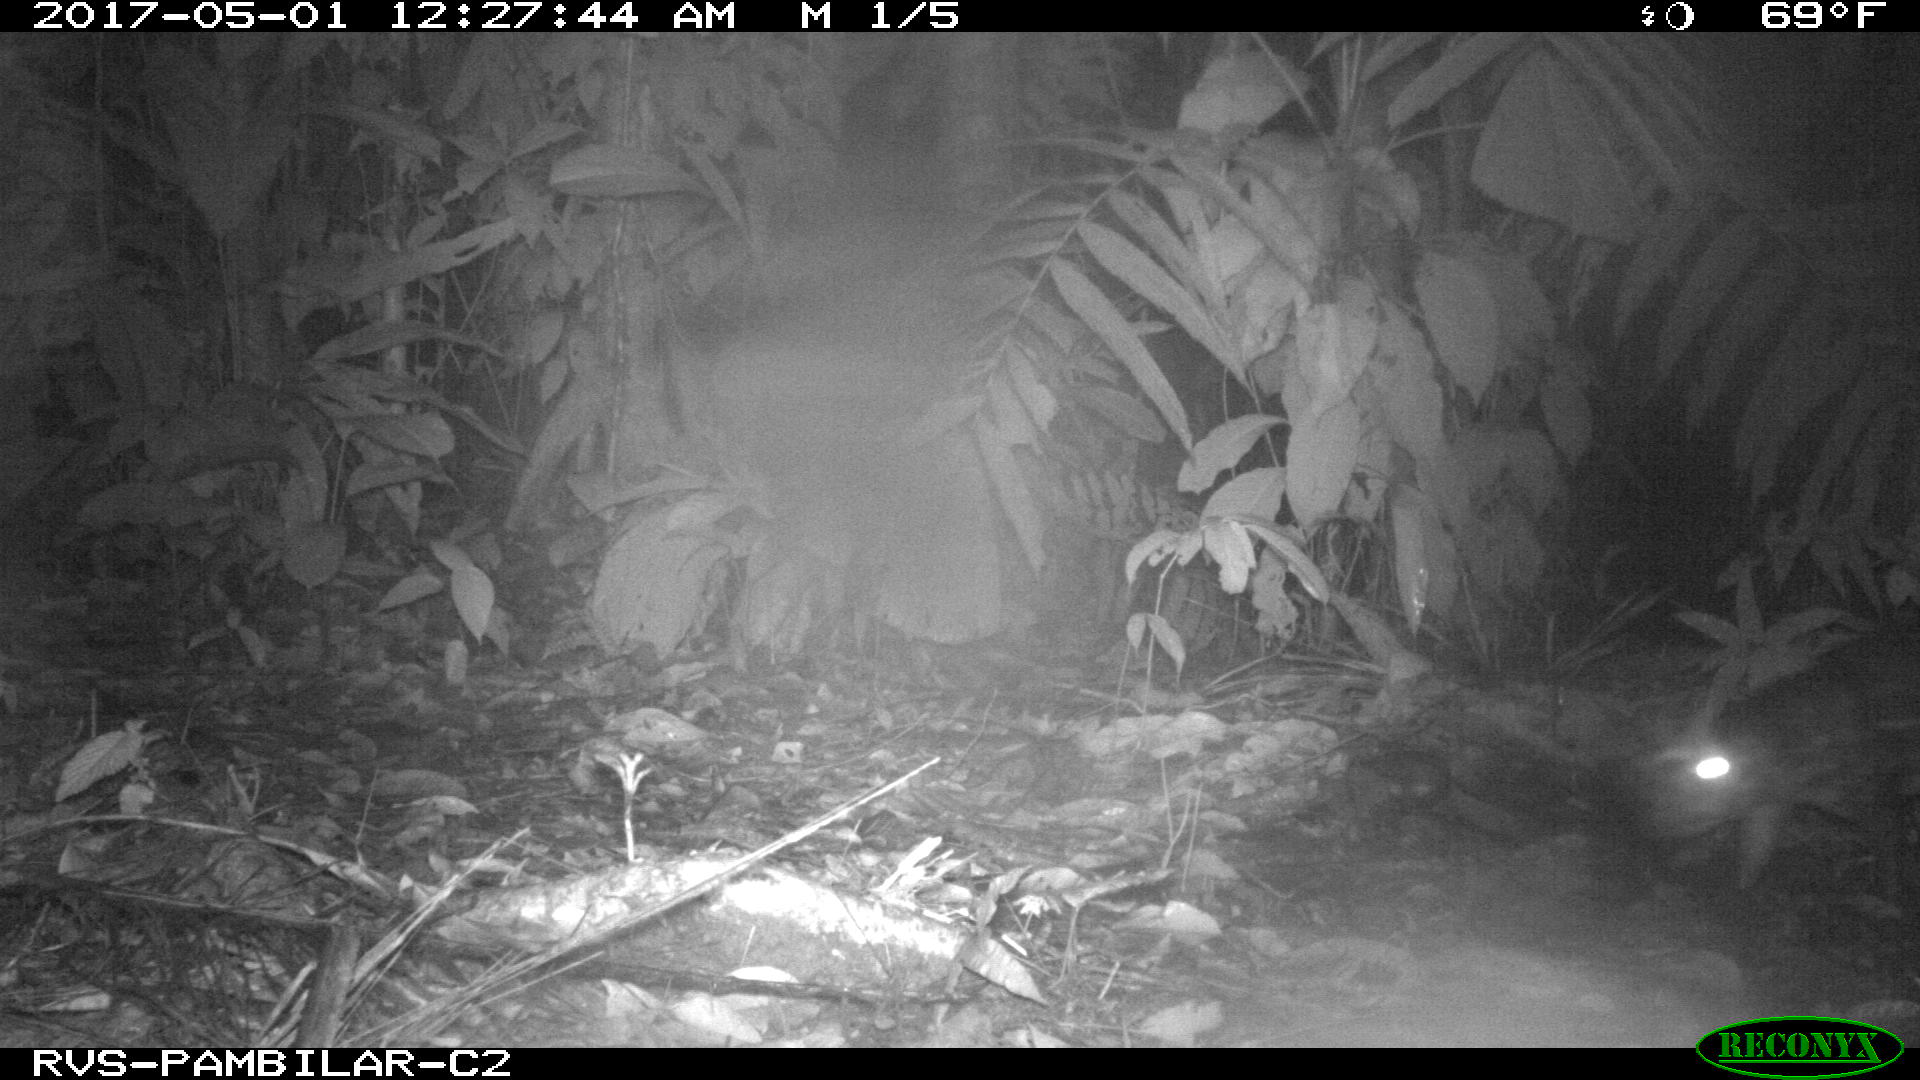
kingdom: Animalia
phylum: Chordata
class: Mammalia
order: Rodentia
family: Cuniculidae
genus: Cuniculus
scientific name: Cuniculus paca
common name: Lowland paca
